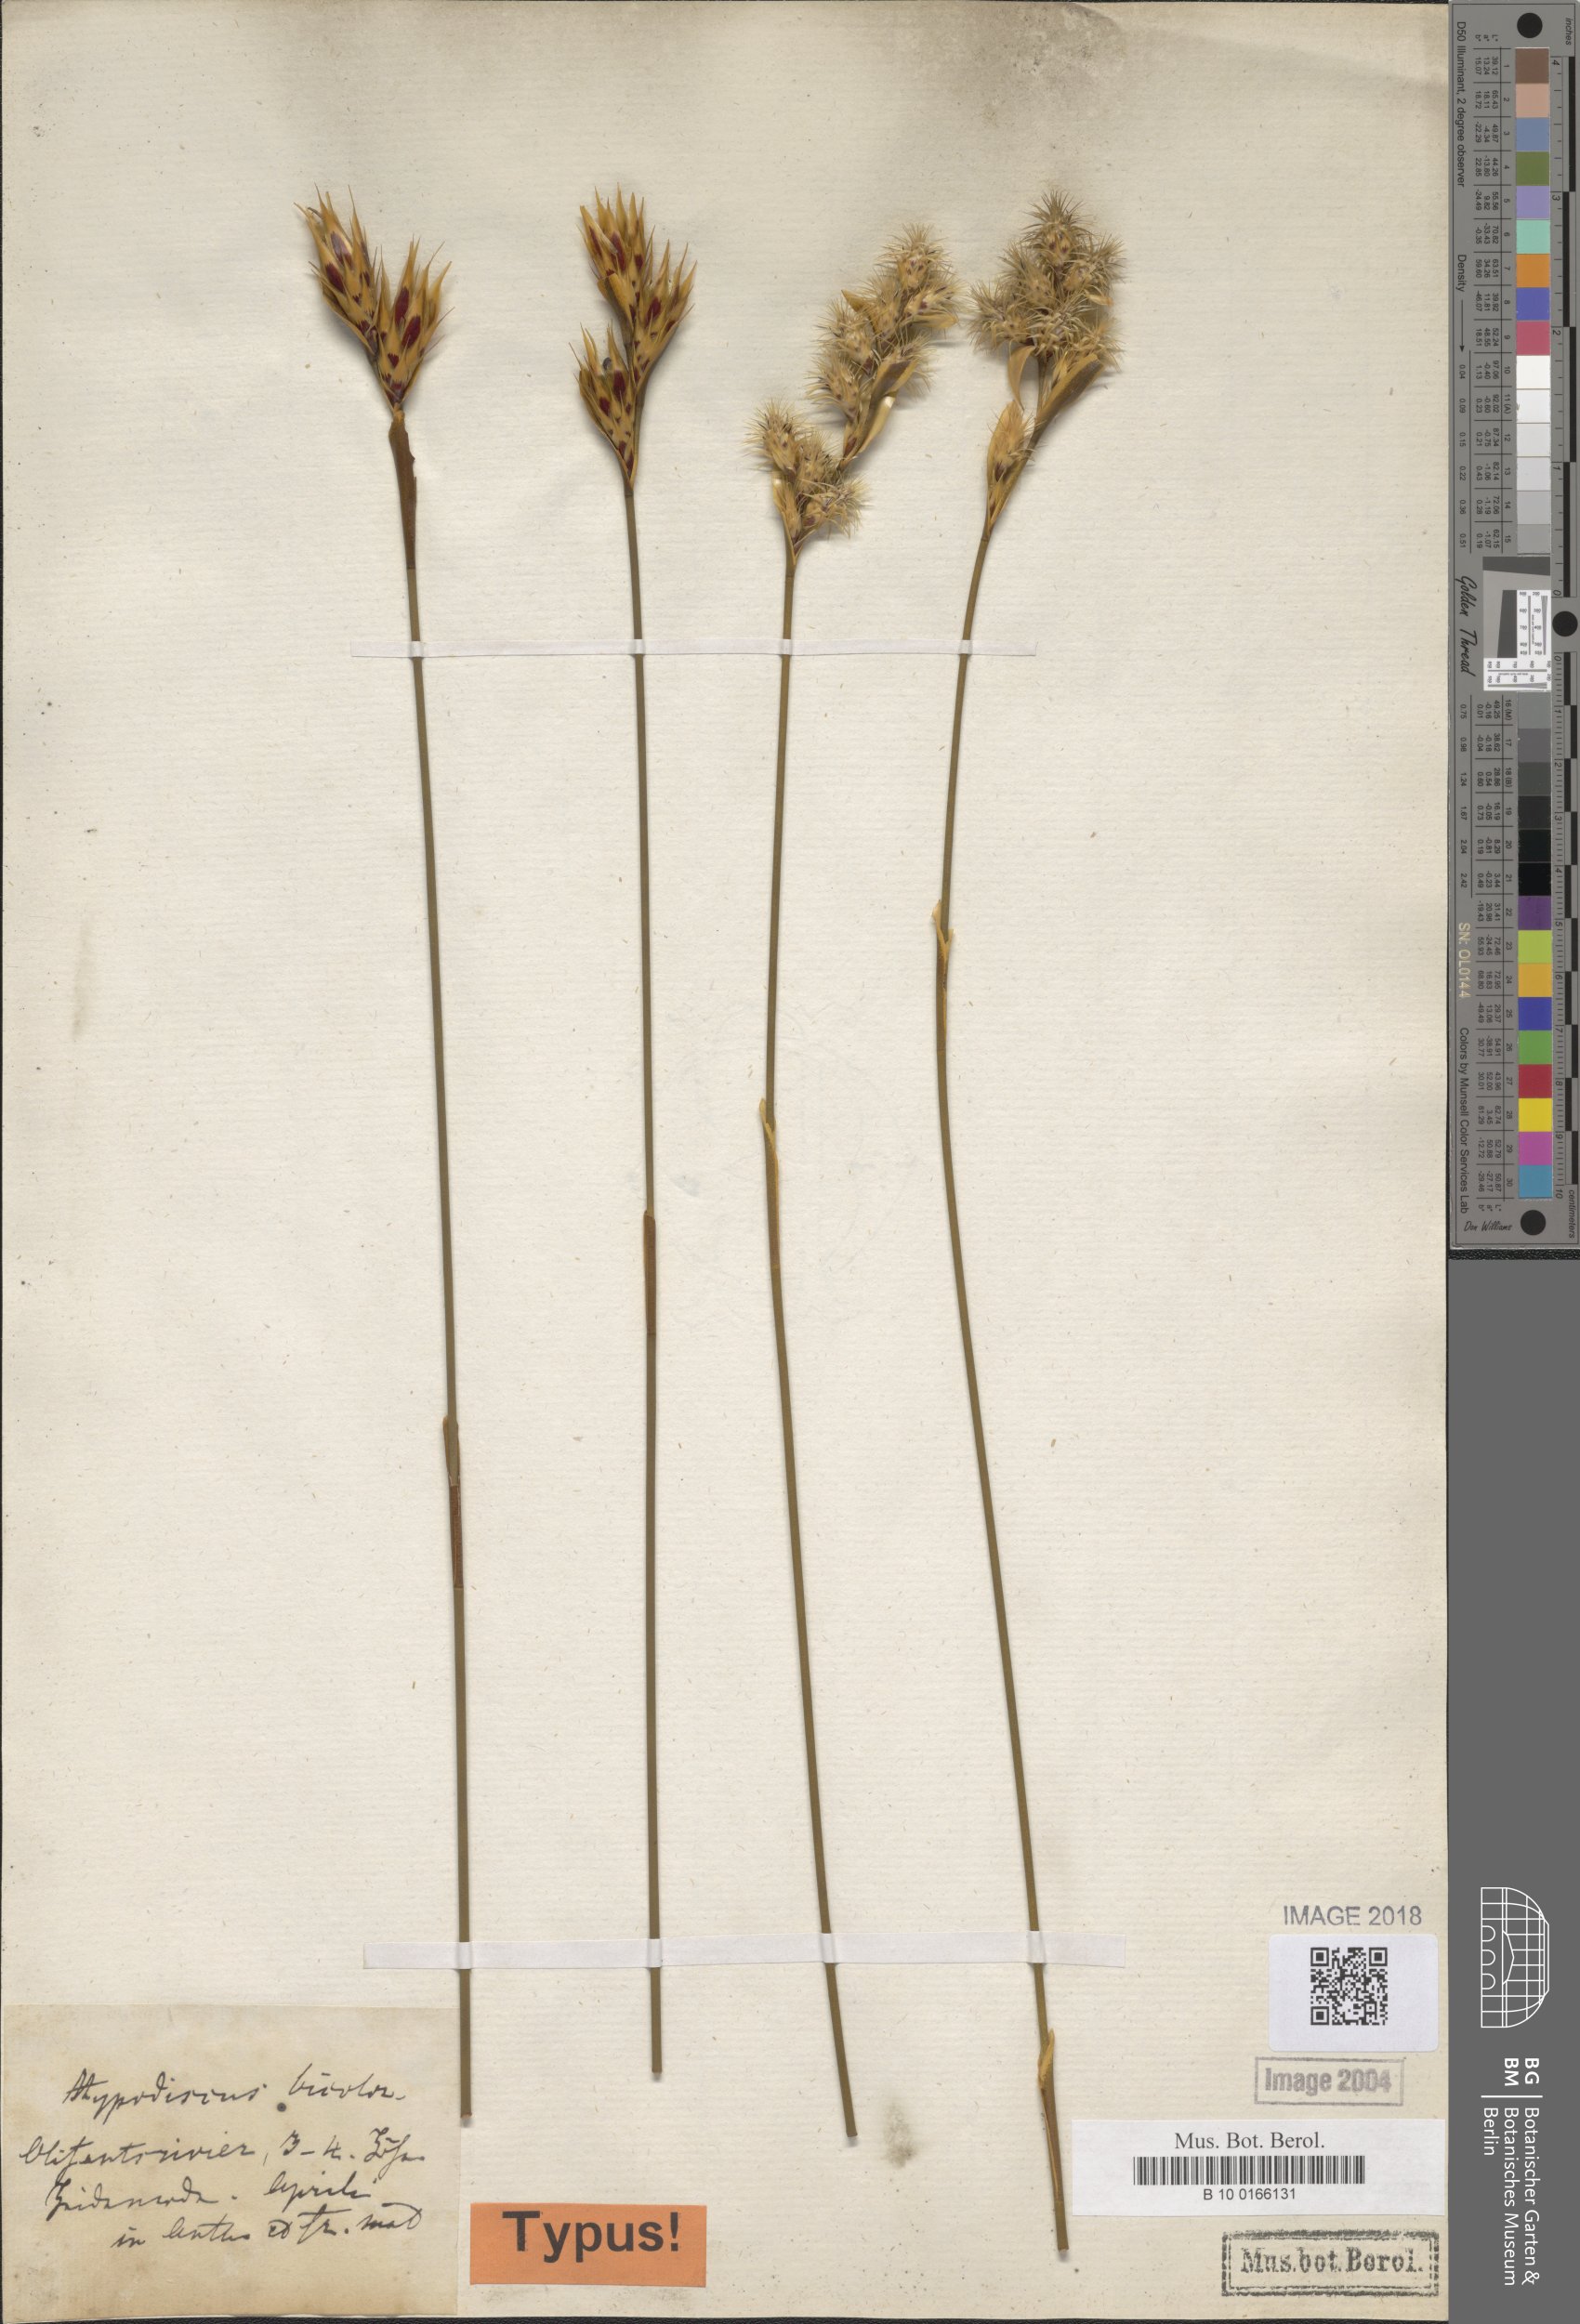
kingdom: Plantae
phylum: Tracheophyta
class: Liliopsida
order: Poales
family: Restionaceae
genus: Hypodiscus
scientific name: Hypodiscus aristatus
